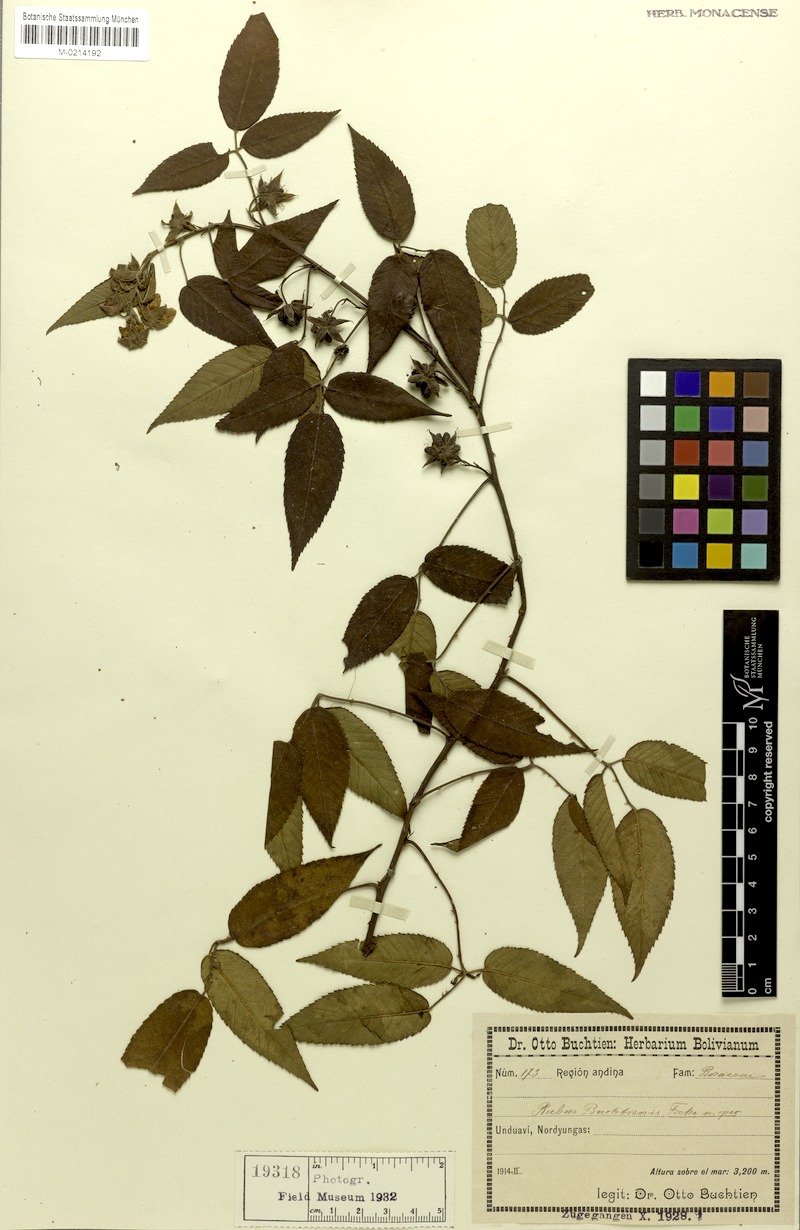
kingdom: Plantae
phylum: Tracheophyta
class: Magnoliopsida
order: Rosales
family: Rosaceae
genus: Rubus
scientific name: Rubus buchtienii
